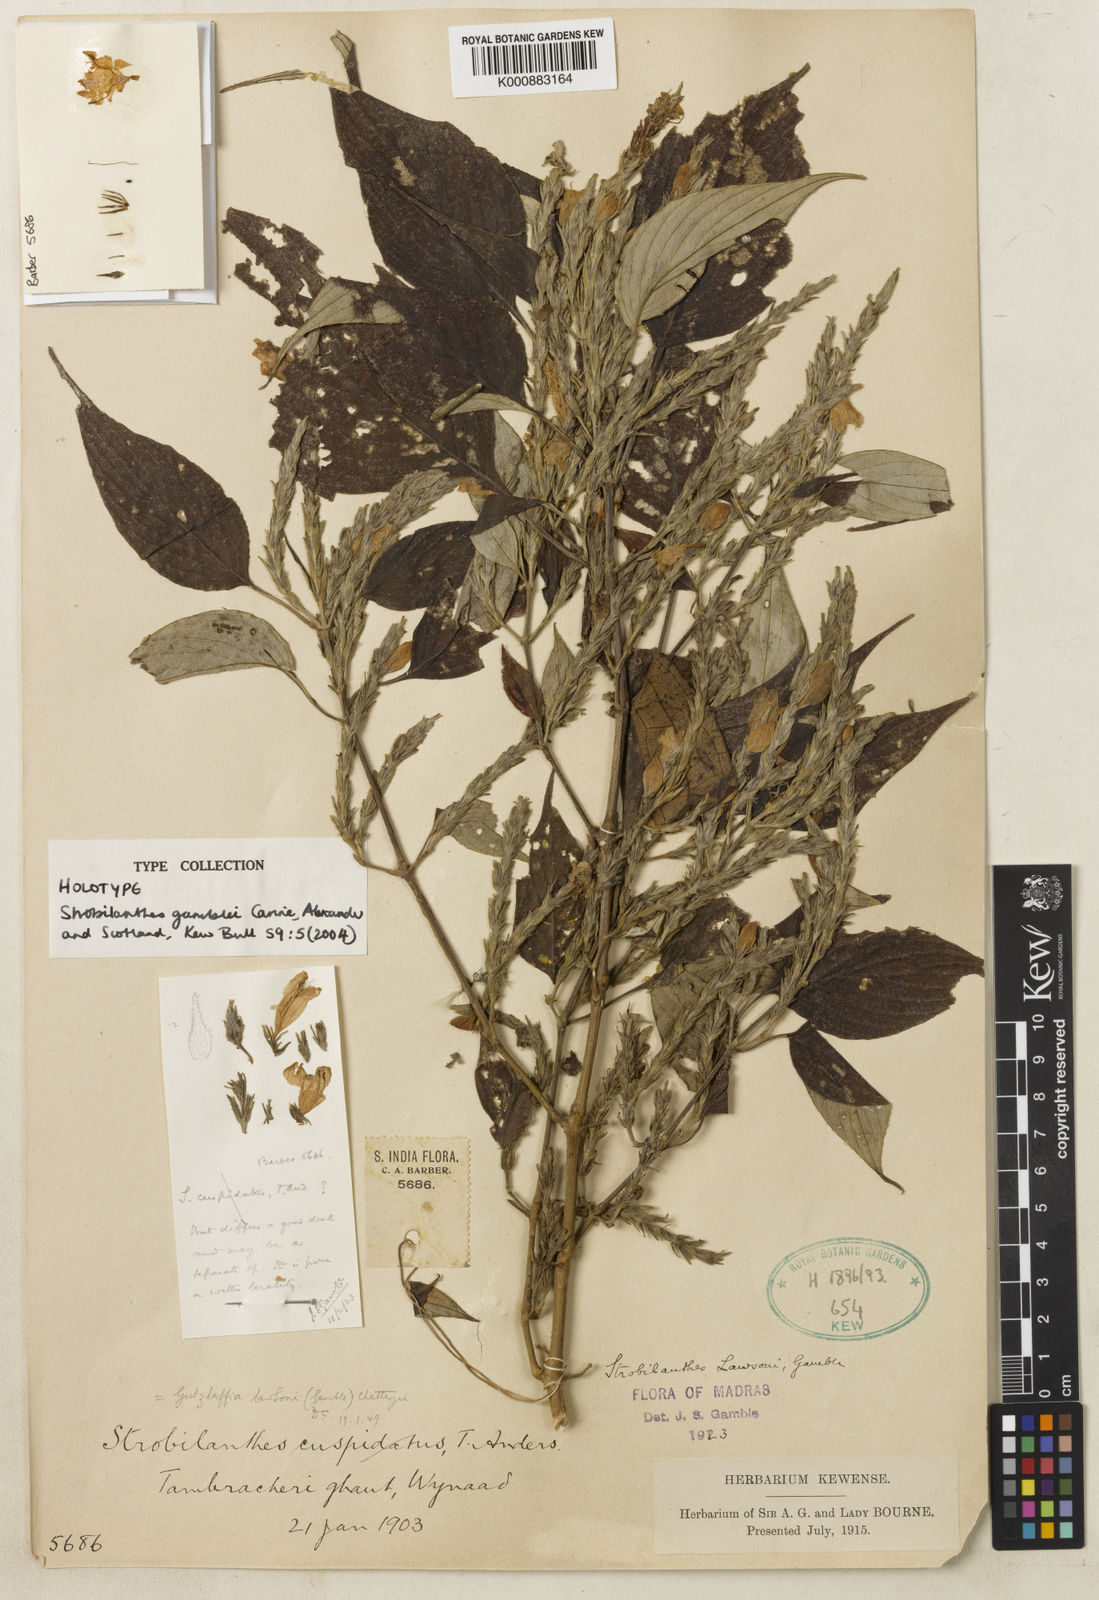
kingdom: Plantae
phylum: Tracheophyta
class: Magnoliopsida
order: Lamiales
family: Acanthaceae
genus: Strobilanthes
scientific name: Strobilanthes gamblei
